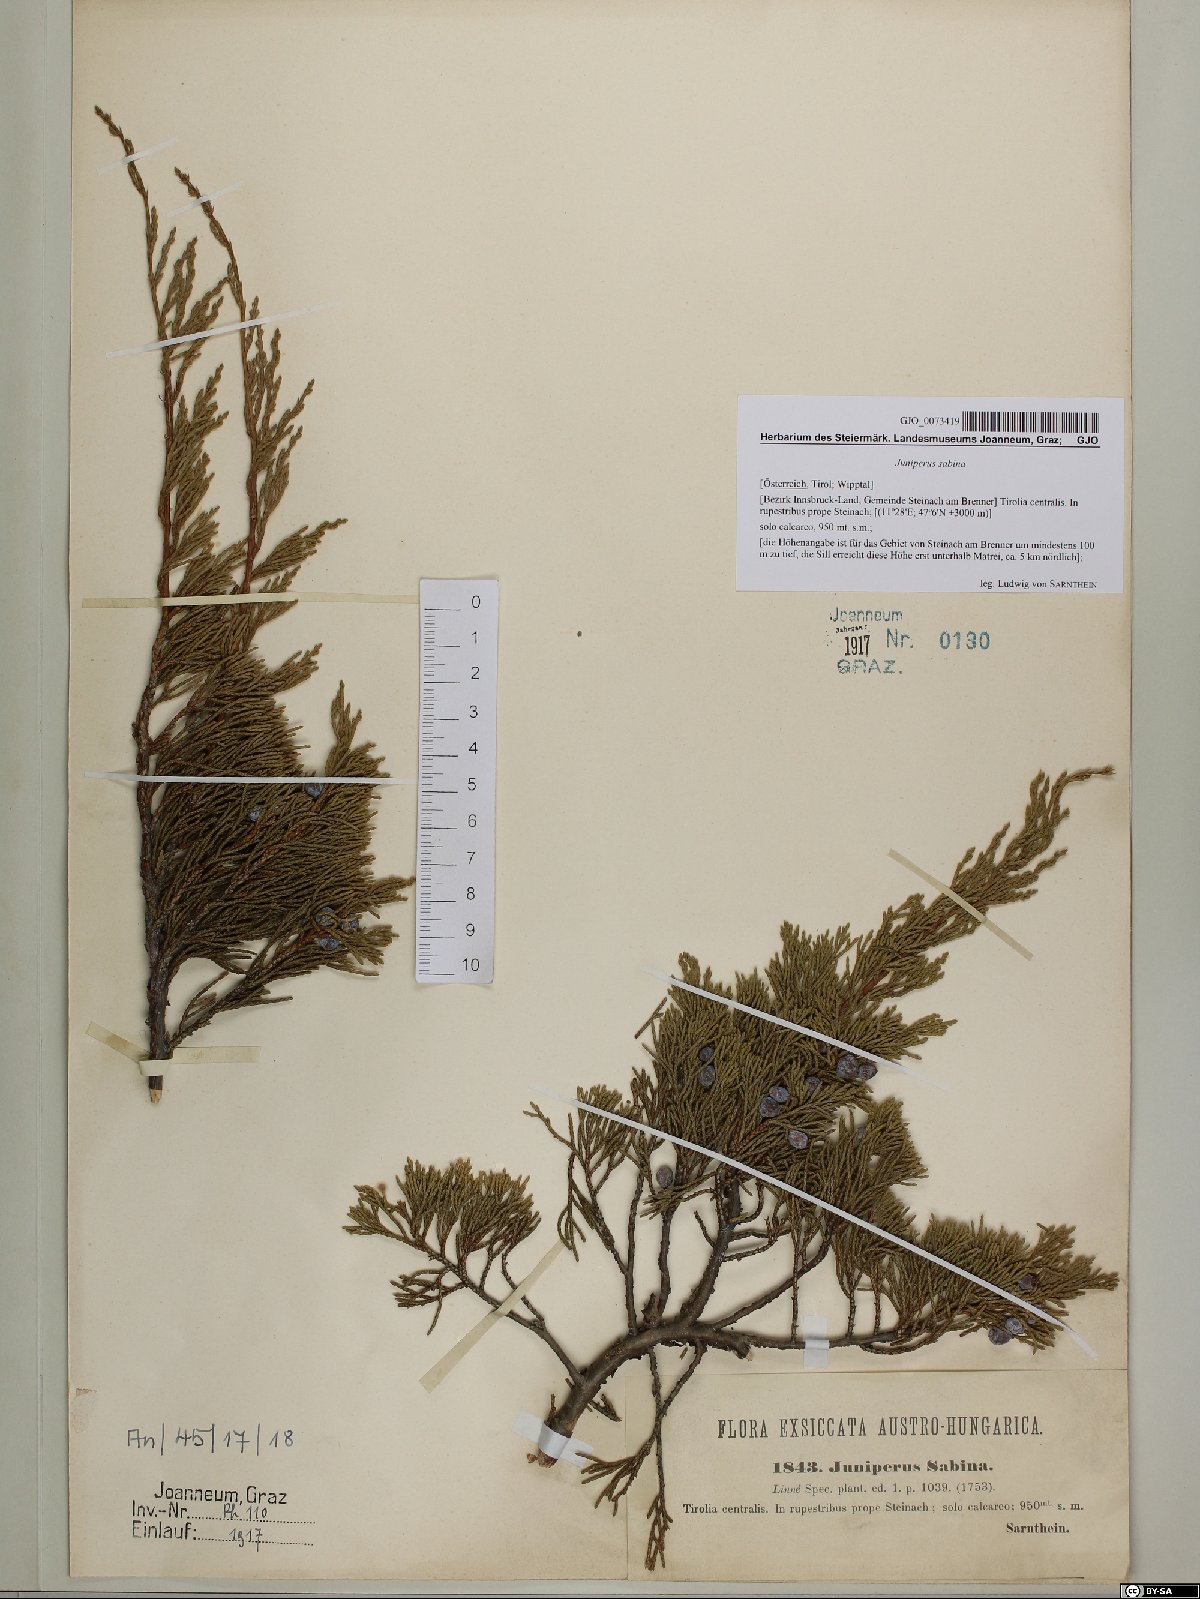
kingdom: Plantae
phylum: Tracheophyta
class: Pinopsida
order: Pinales
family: Cupressaceae
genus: Juniperus
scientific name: Juniperus sabina
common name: Savin
